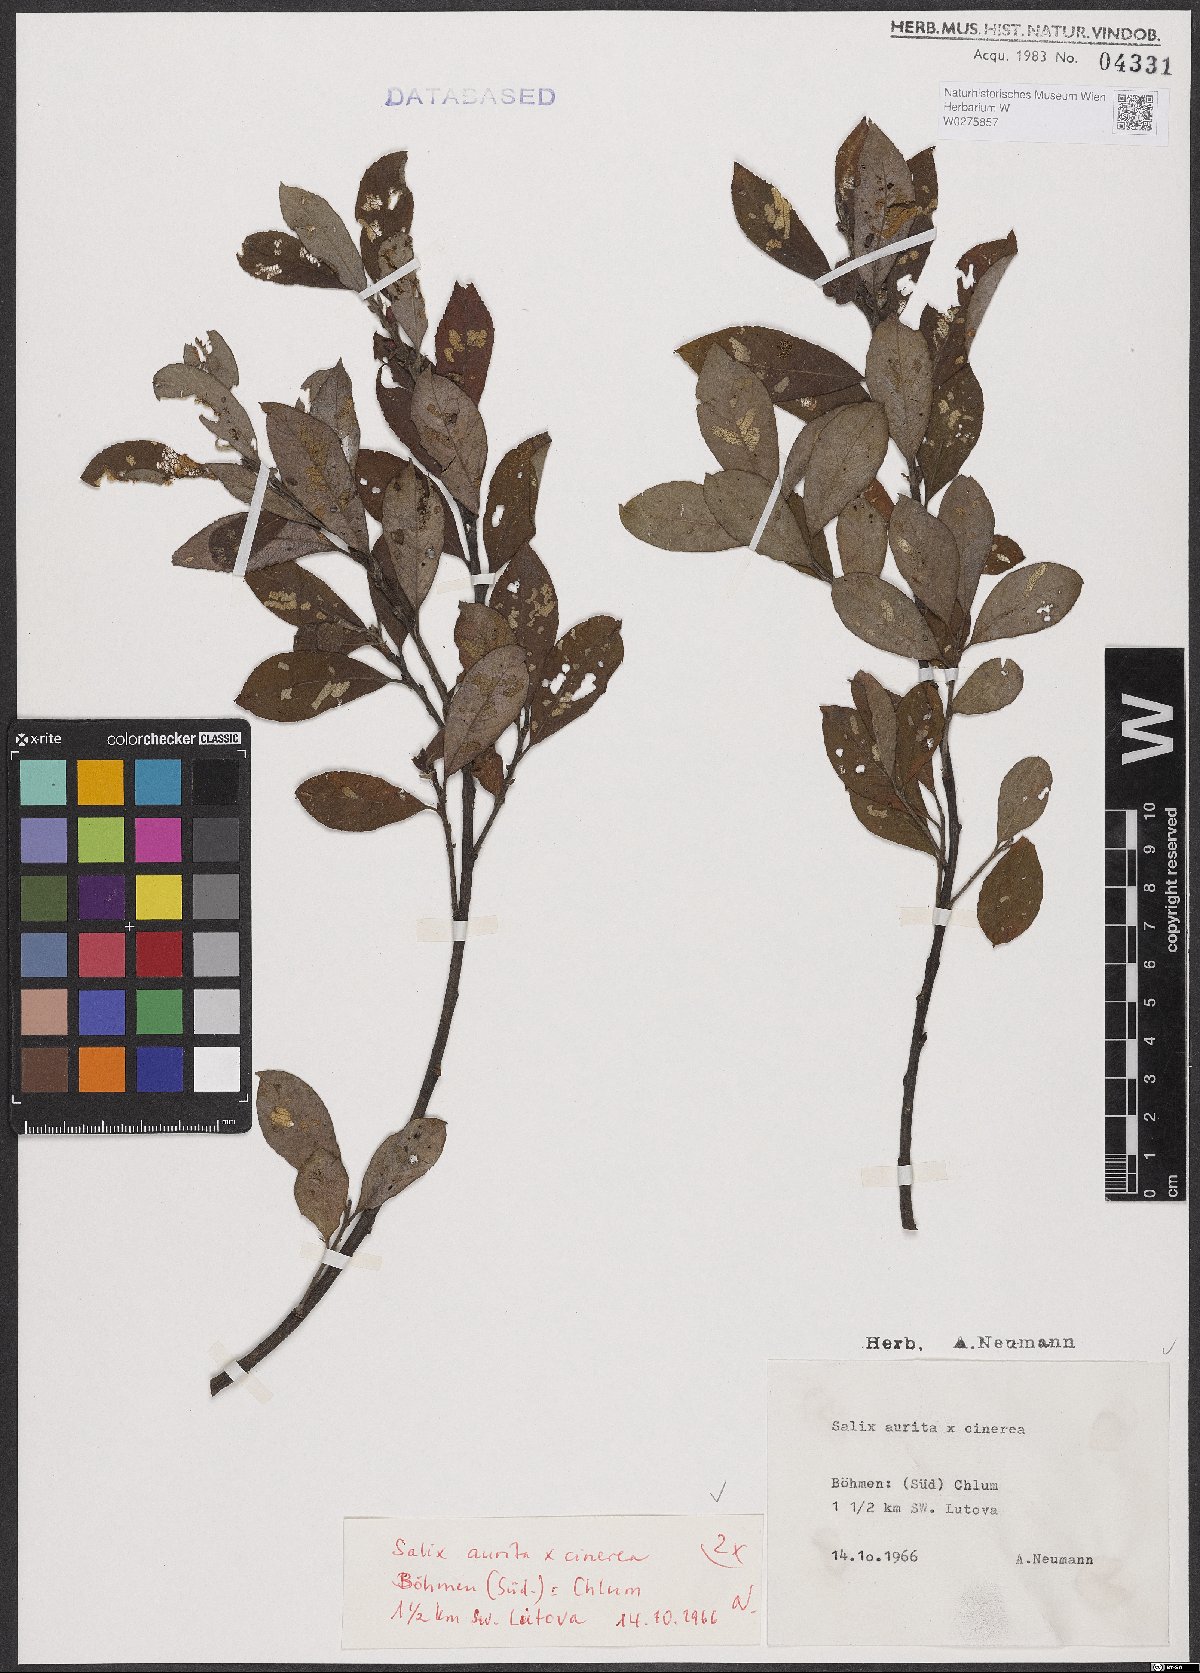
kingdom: Plantae
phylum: Tracheophyta
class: Magnoliopsida
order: Malpighiales
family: Salicaceae
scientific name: Salicaceae
